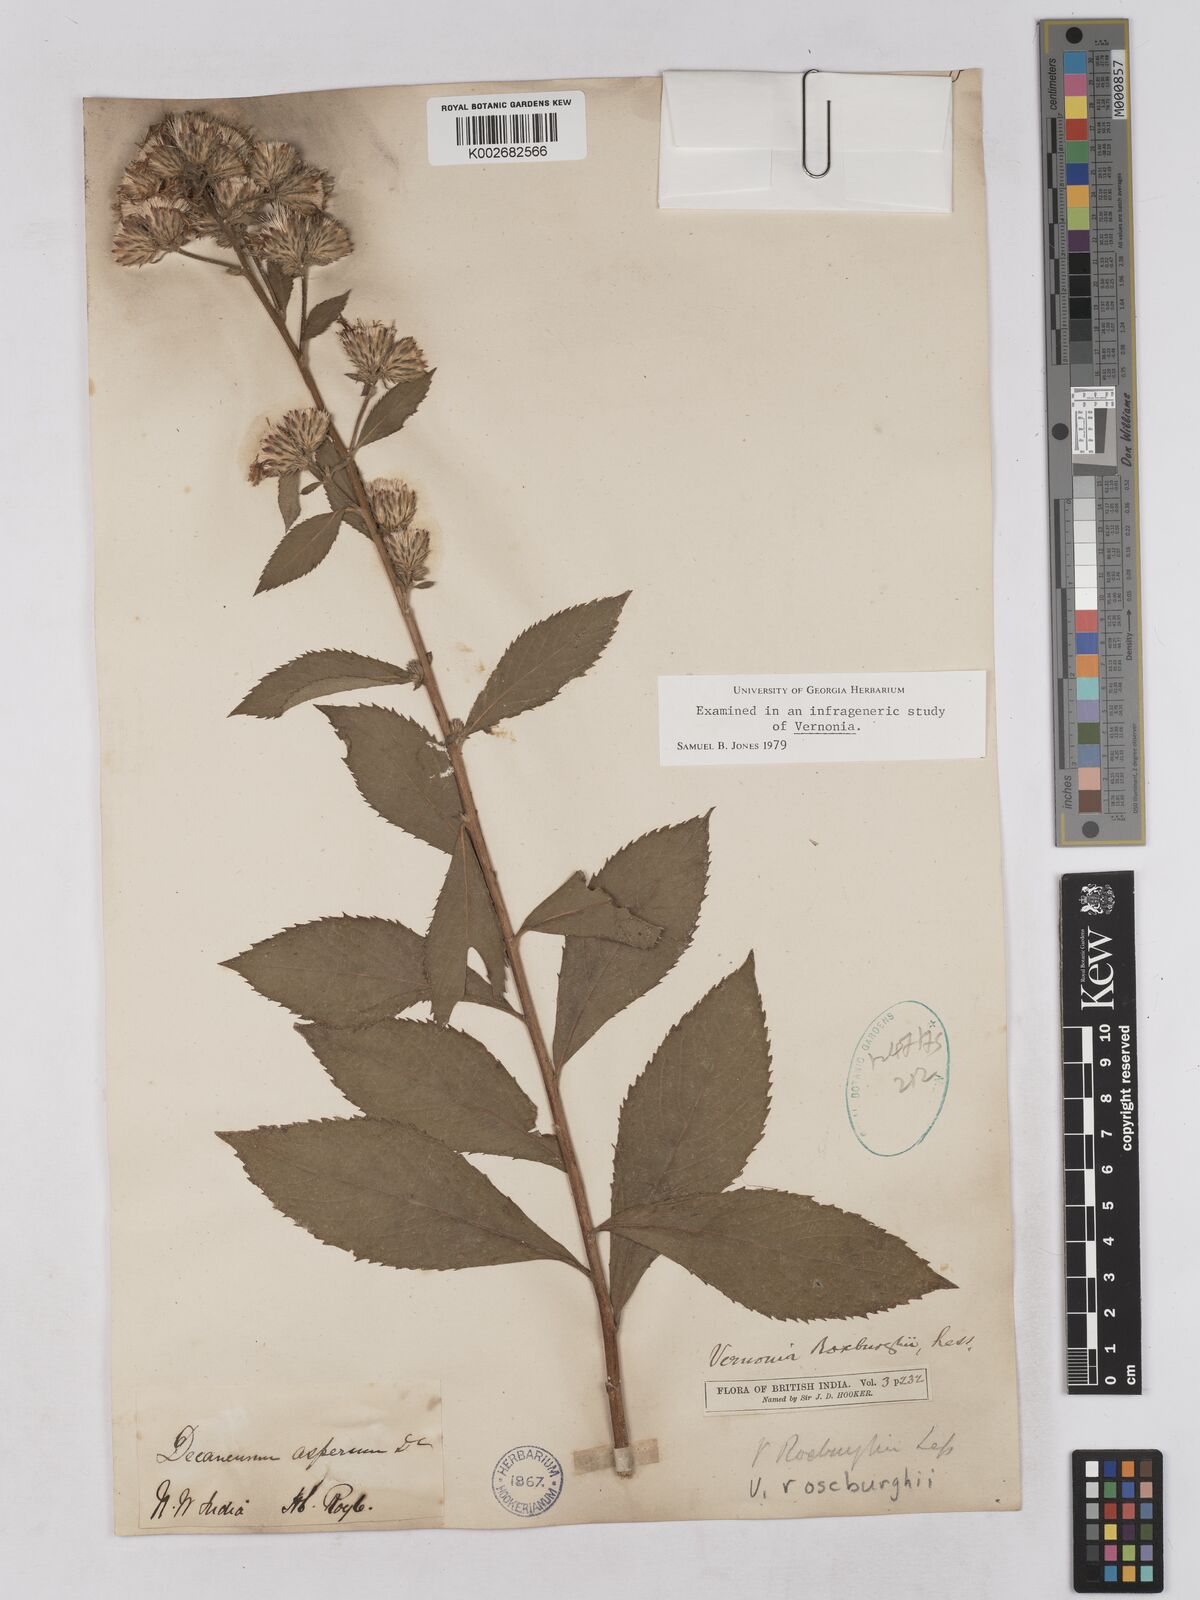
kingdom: Plantae
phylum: Tracheophyta
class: Magnoliopsida
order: Asterales
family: Asteraceae
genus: Acilepis
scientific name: Acilepis aspera
